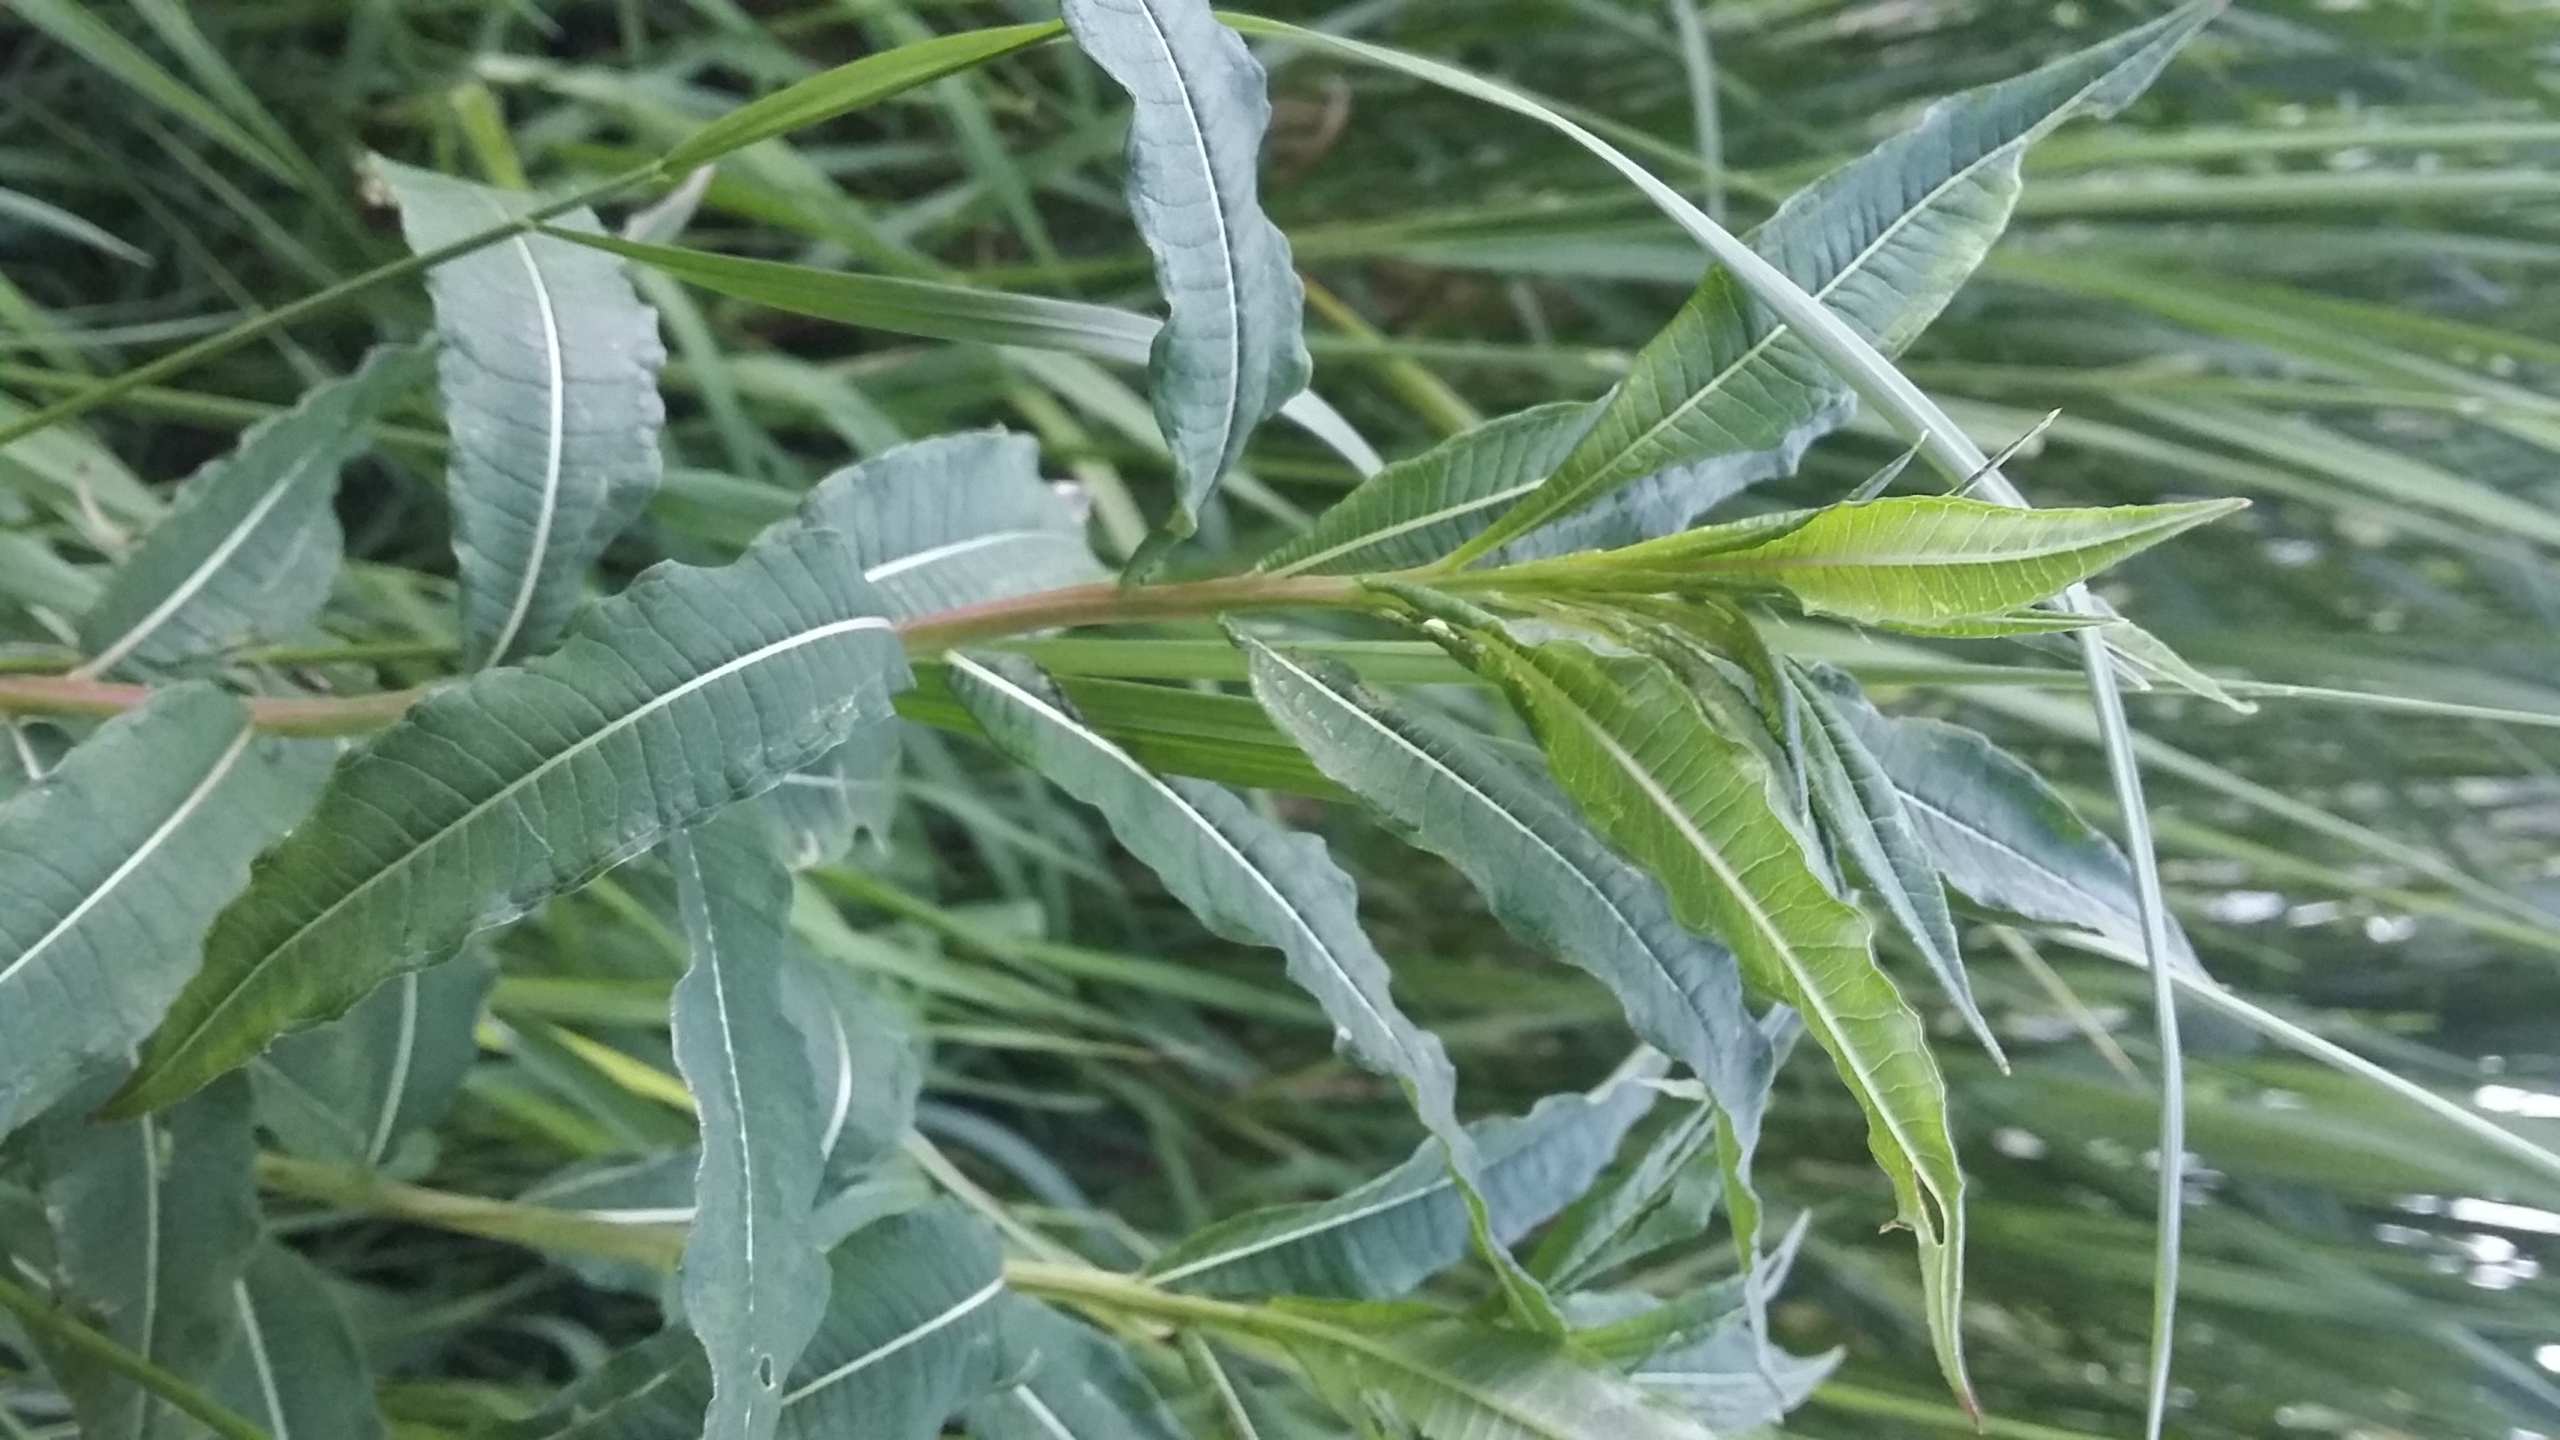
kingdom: Plantae
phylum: Tracheophyta
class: Magnoliopsida
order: Myrtales
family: Onagraceae
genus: Chamaenerion
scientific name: Chamaenerion angustifolium
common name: Gederams
